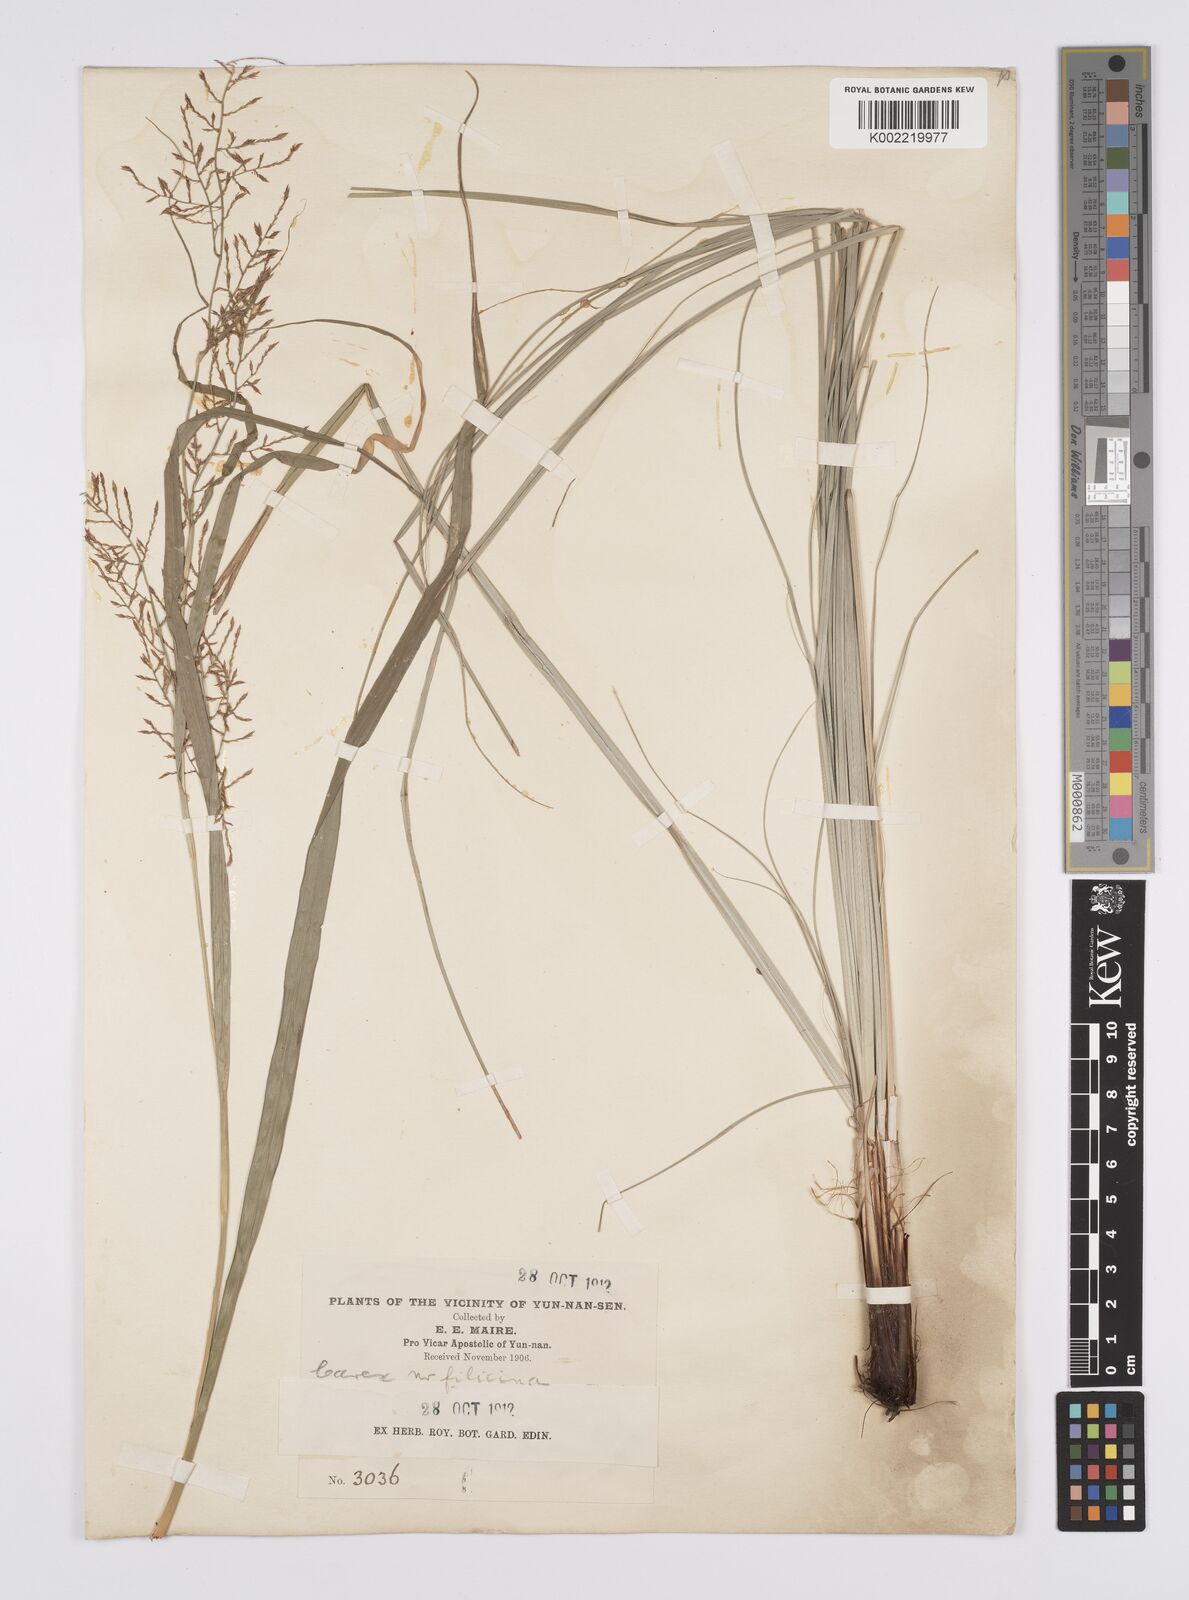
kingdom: Plantae
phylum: Tracheophyta
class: Liliopsida
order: Poales
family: Cyperaceae
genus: Carex
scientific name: Carex filicina
